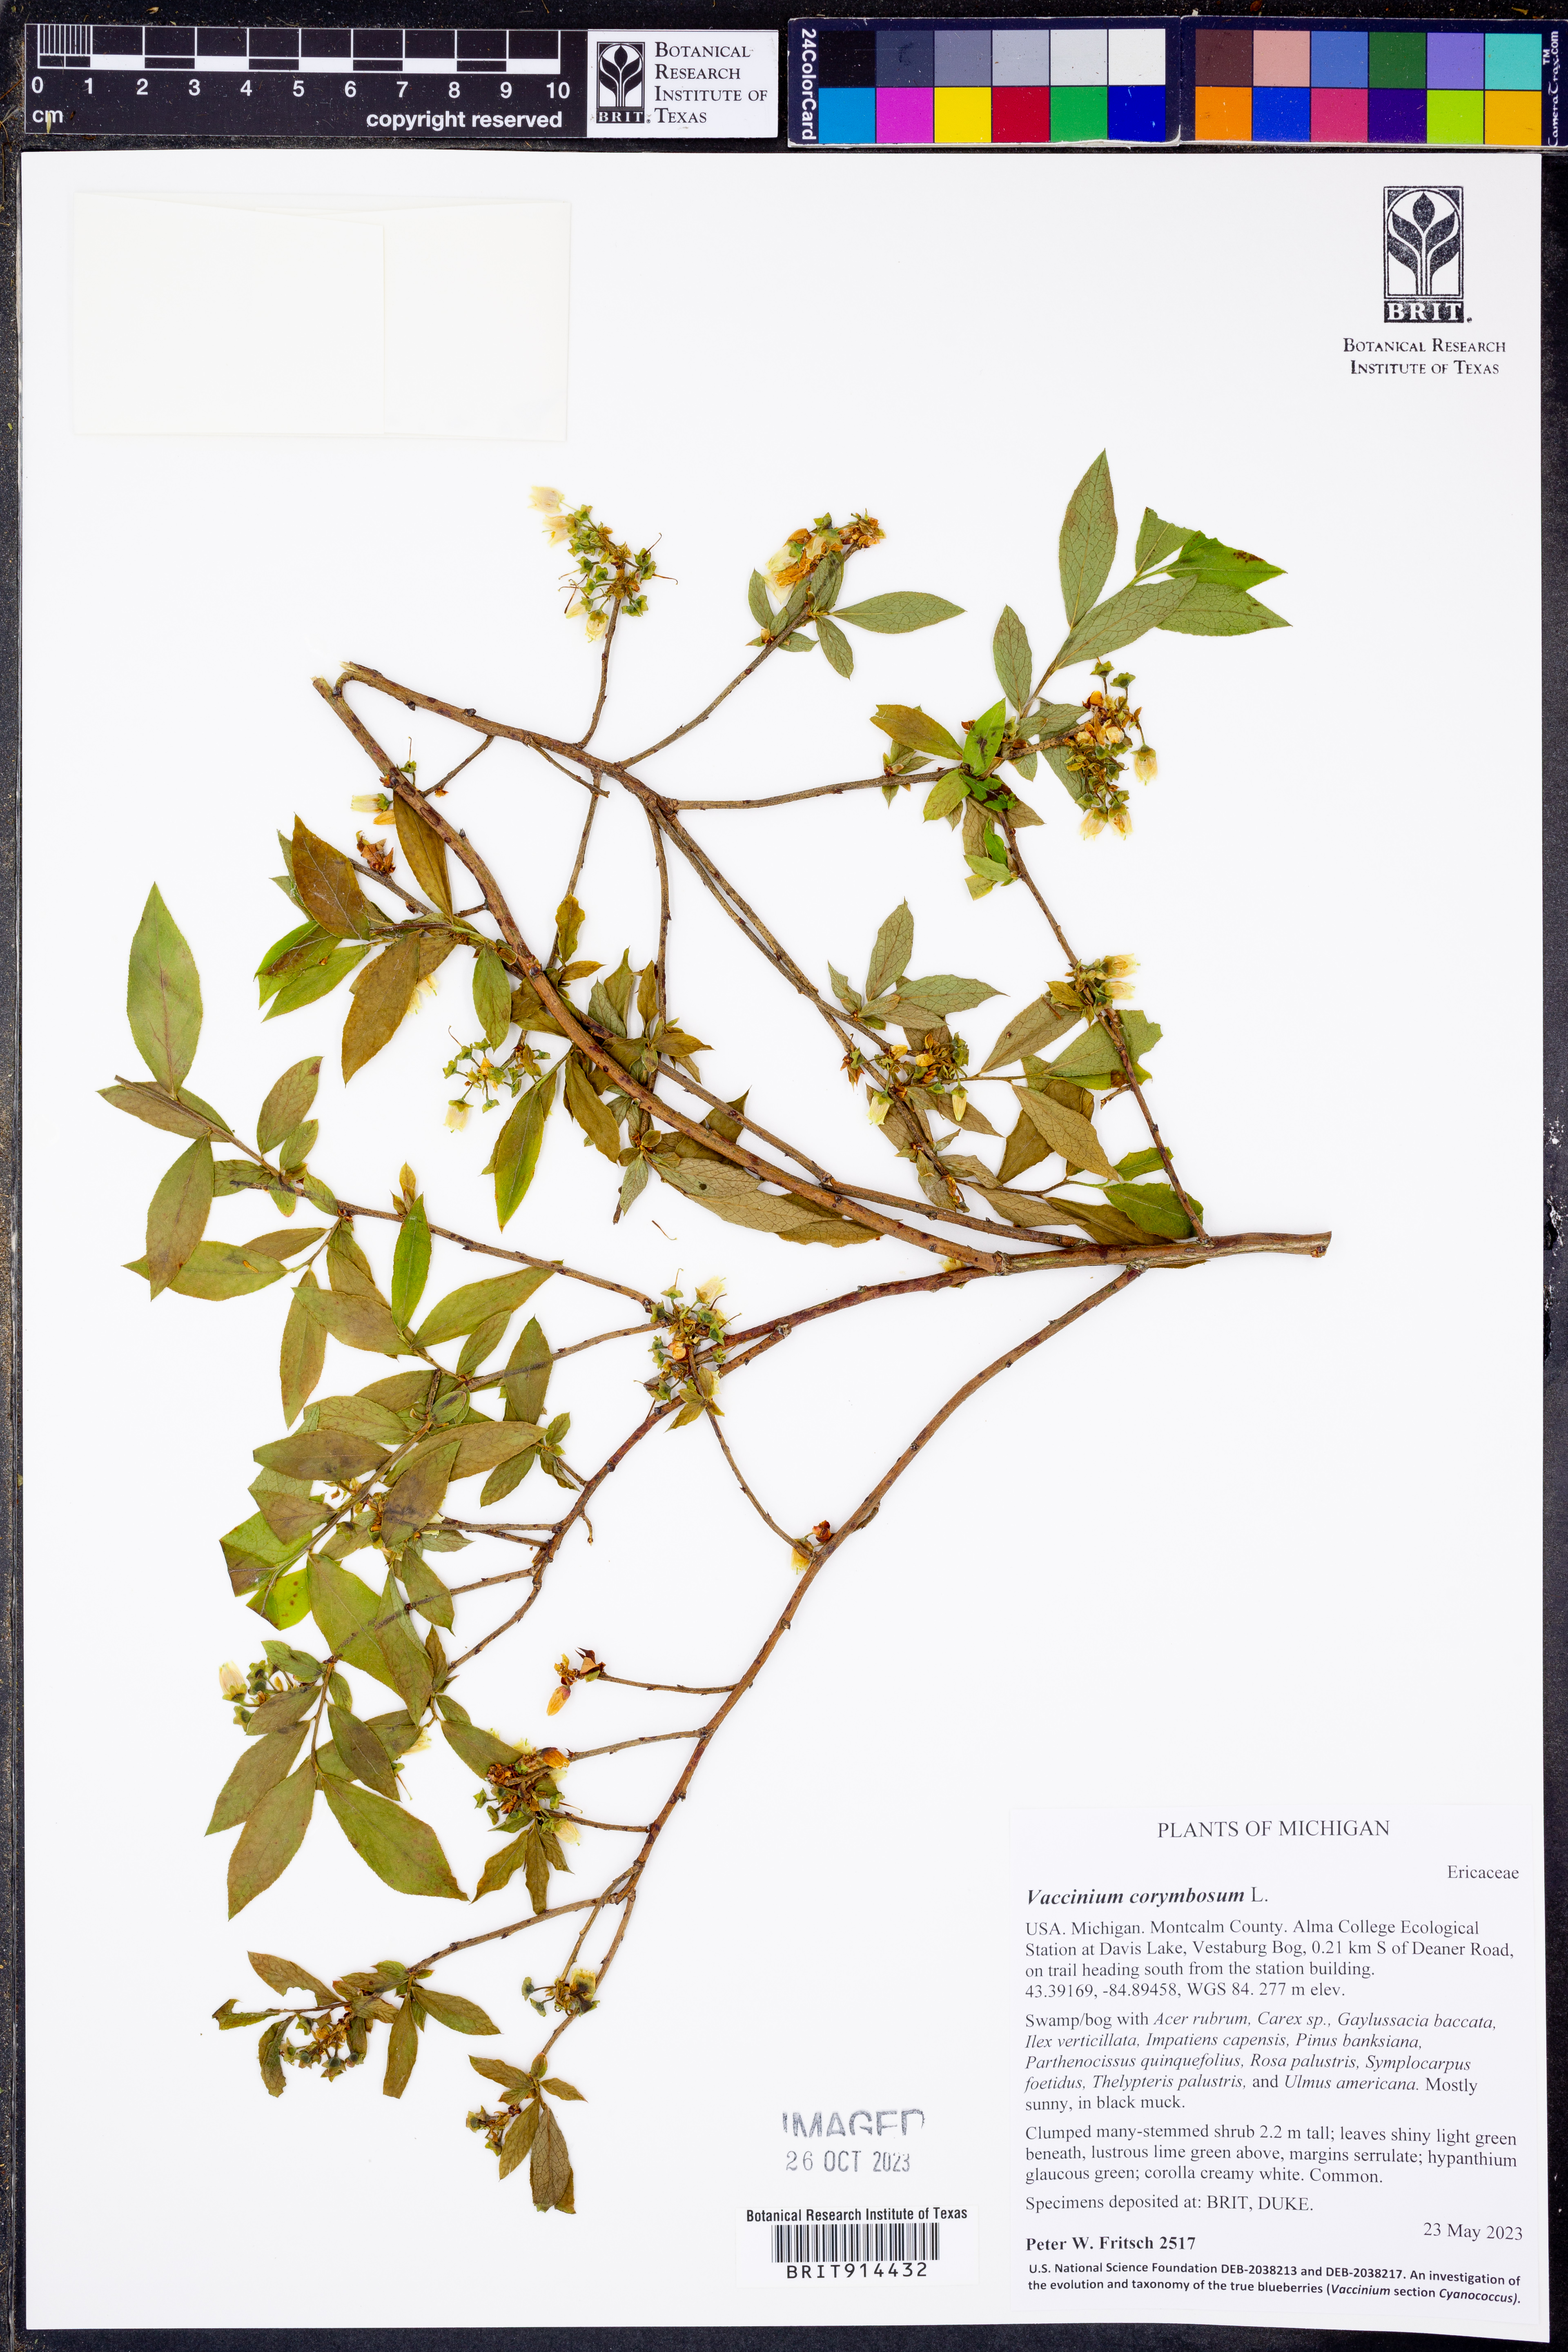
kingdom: Plantae
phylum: Tracheophyta
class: Magnoliopsida
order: Ericales
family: Ericaceae
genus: Vaccinium
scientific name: Vaccinium corymbosum
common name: Blueberry
